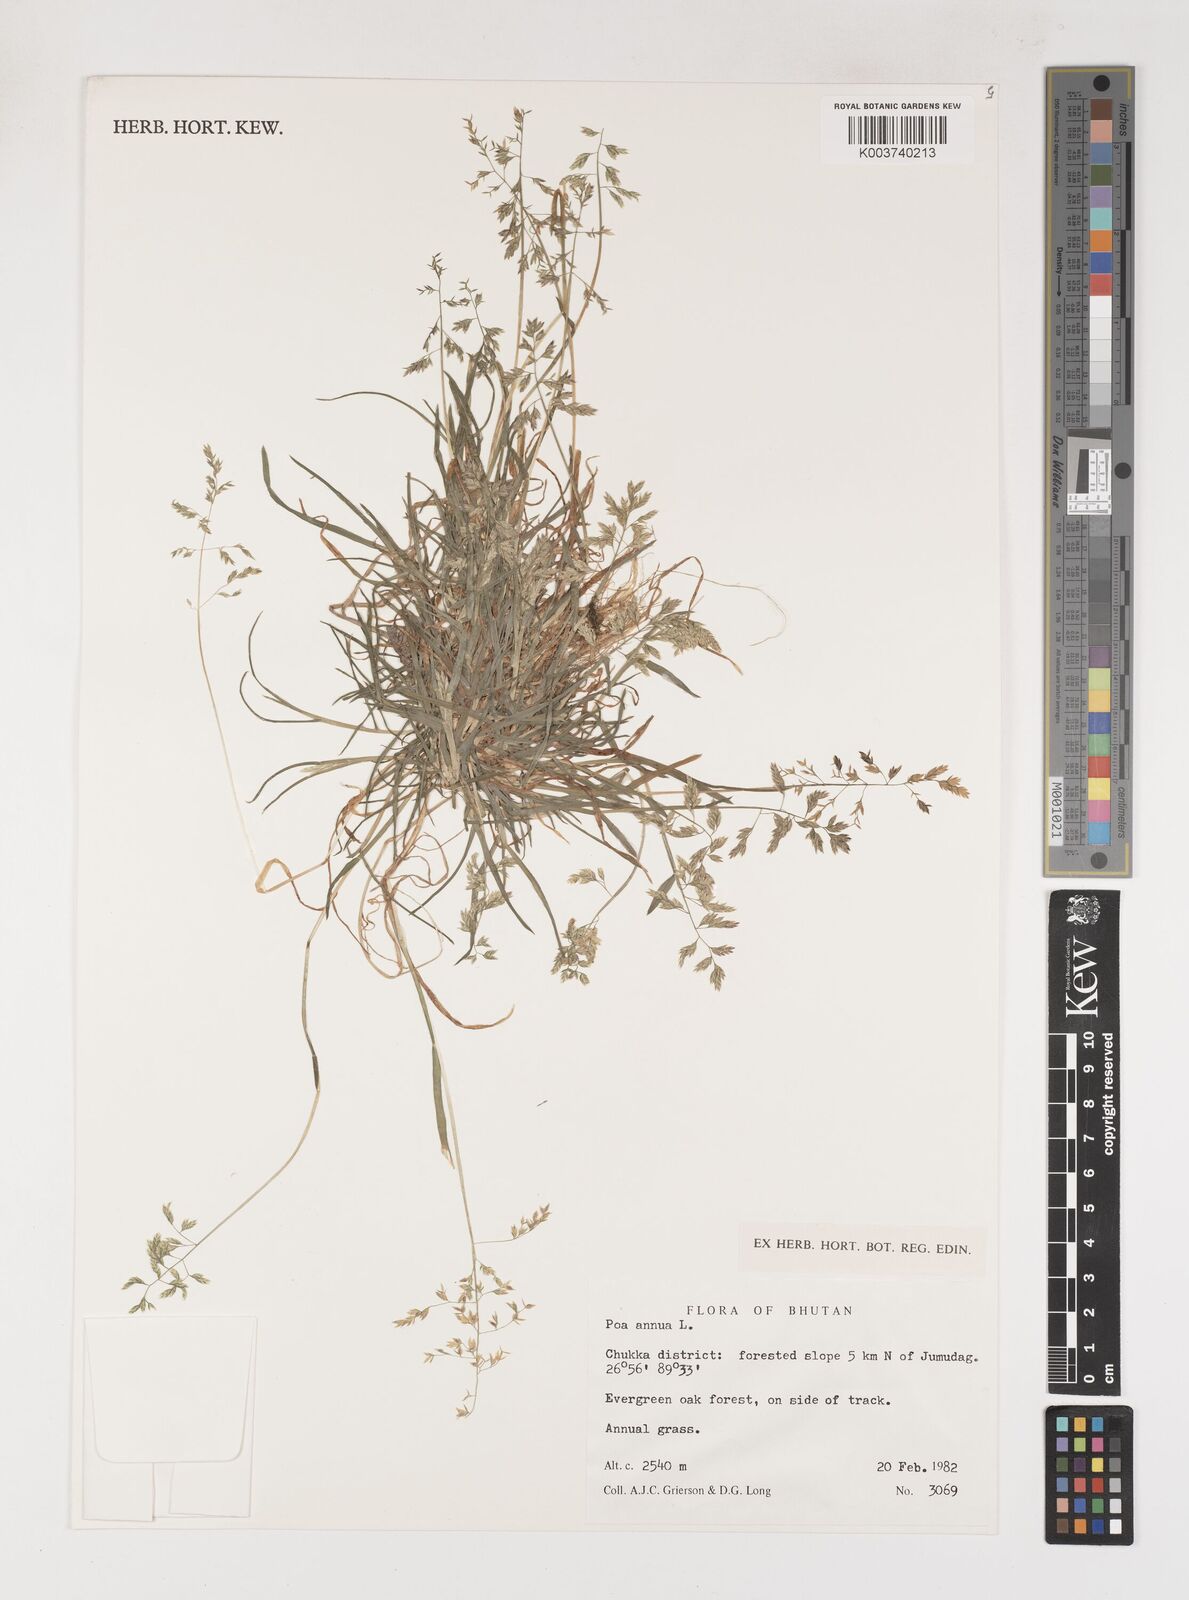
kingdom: Plantae
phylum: Tracheophyta
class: Liliopsida
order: Poales
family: Poaceae
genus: Poa
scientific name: Poa annua
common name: Annual bluegrass
